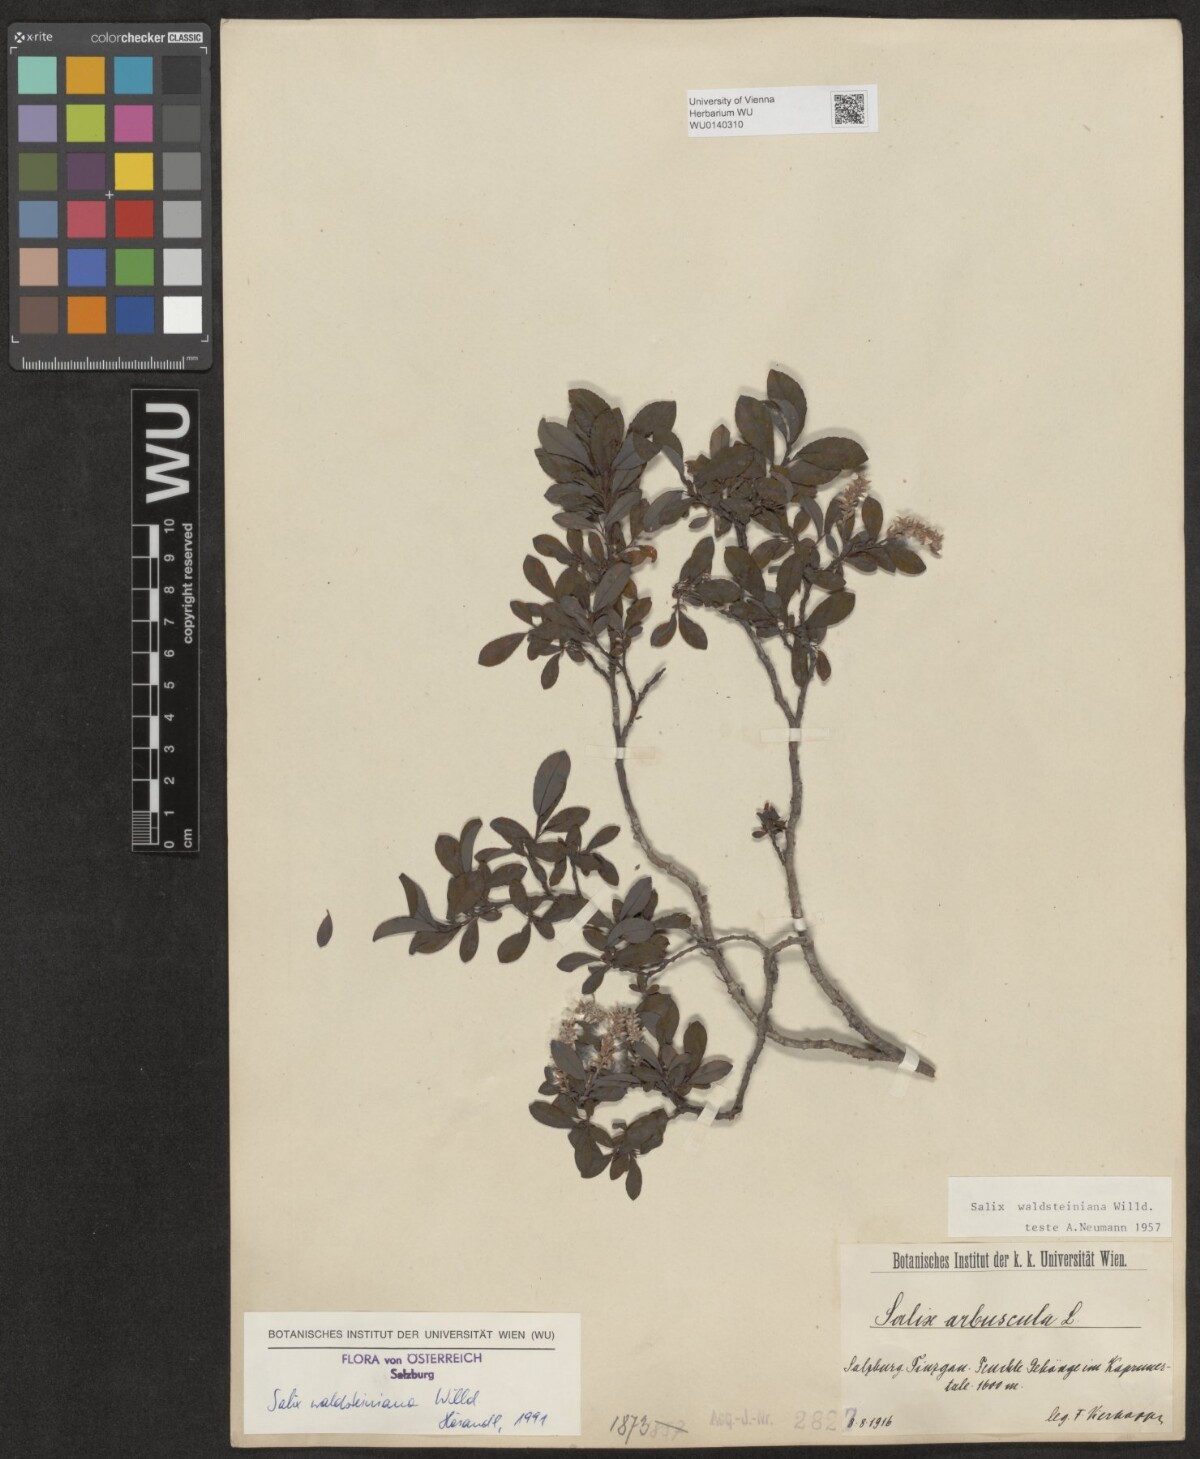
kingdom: Plantae
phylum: Tracheophyta
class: Magnoliopsida
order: Malpighiales
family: Salicaceae
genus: Salix
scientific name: Salix waldsteiniana
